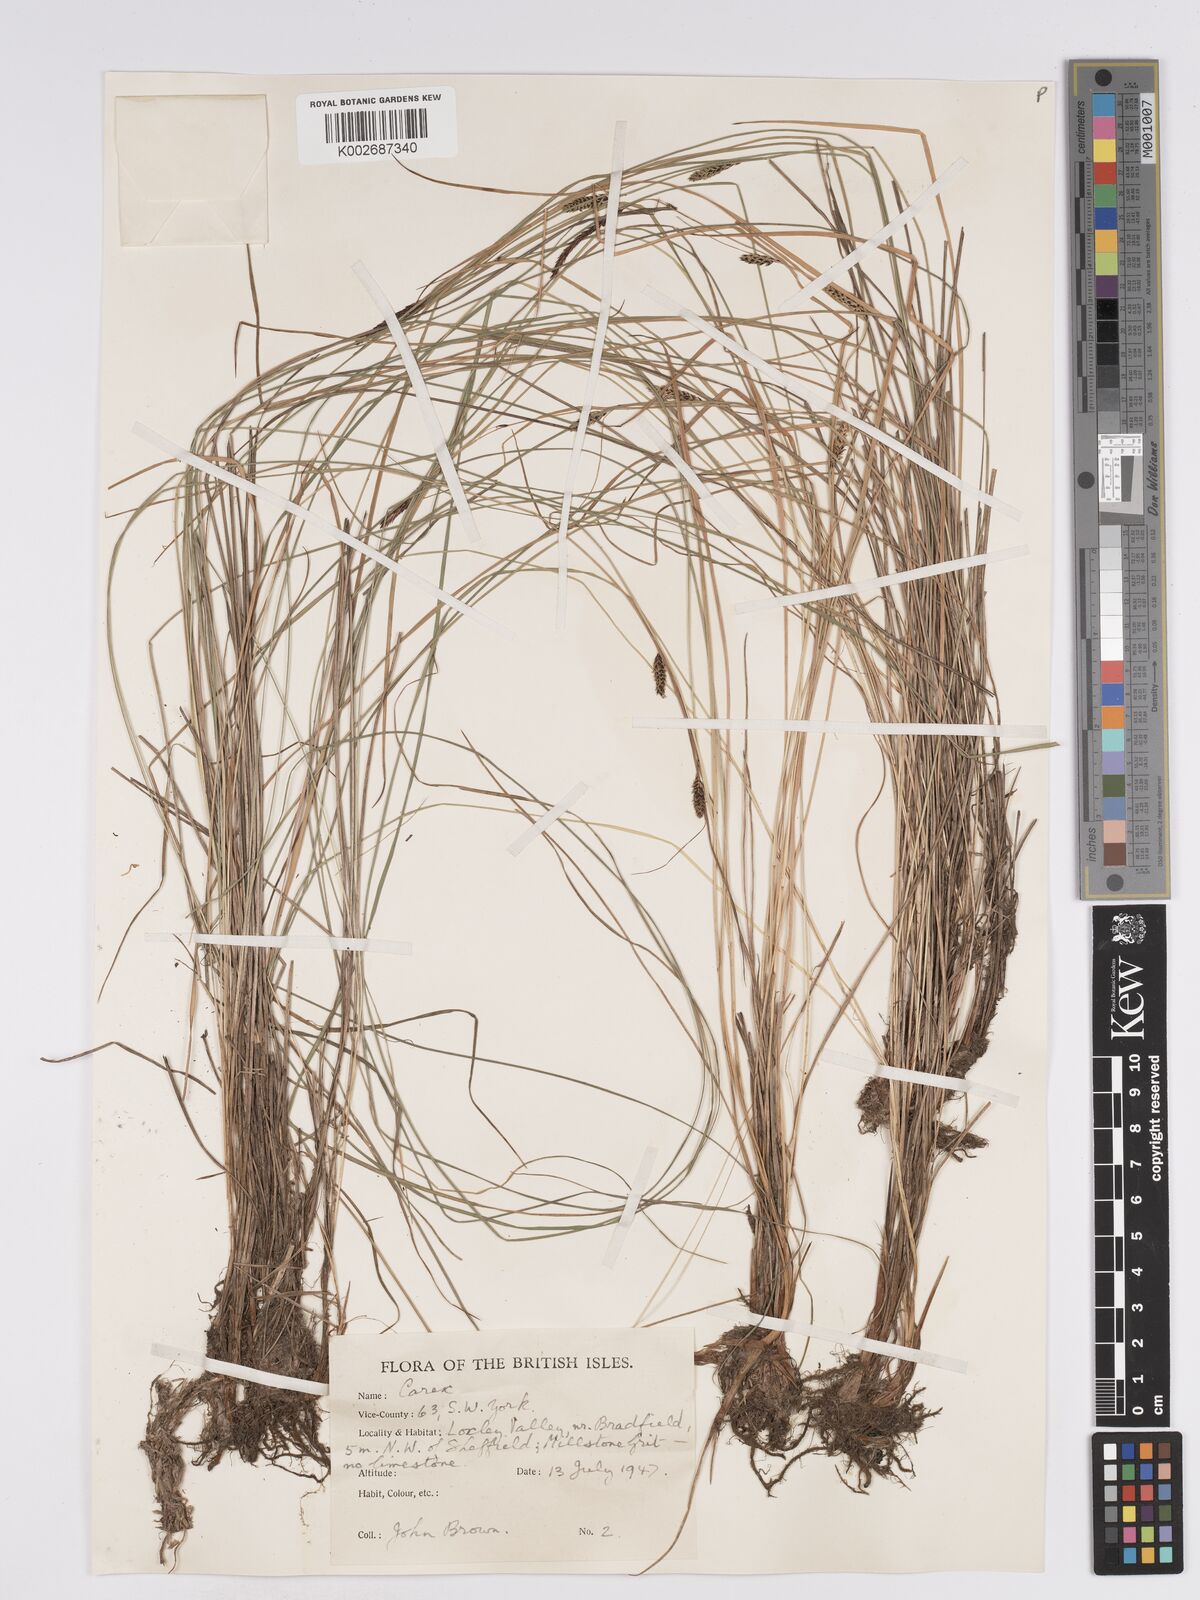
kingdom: Plantae
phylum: Tracheophyta
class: Liliopsida
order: Poales
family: Cyperaceae
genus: Carex
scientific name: Carex nigra
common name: Common sedge
